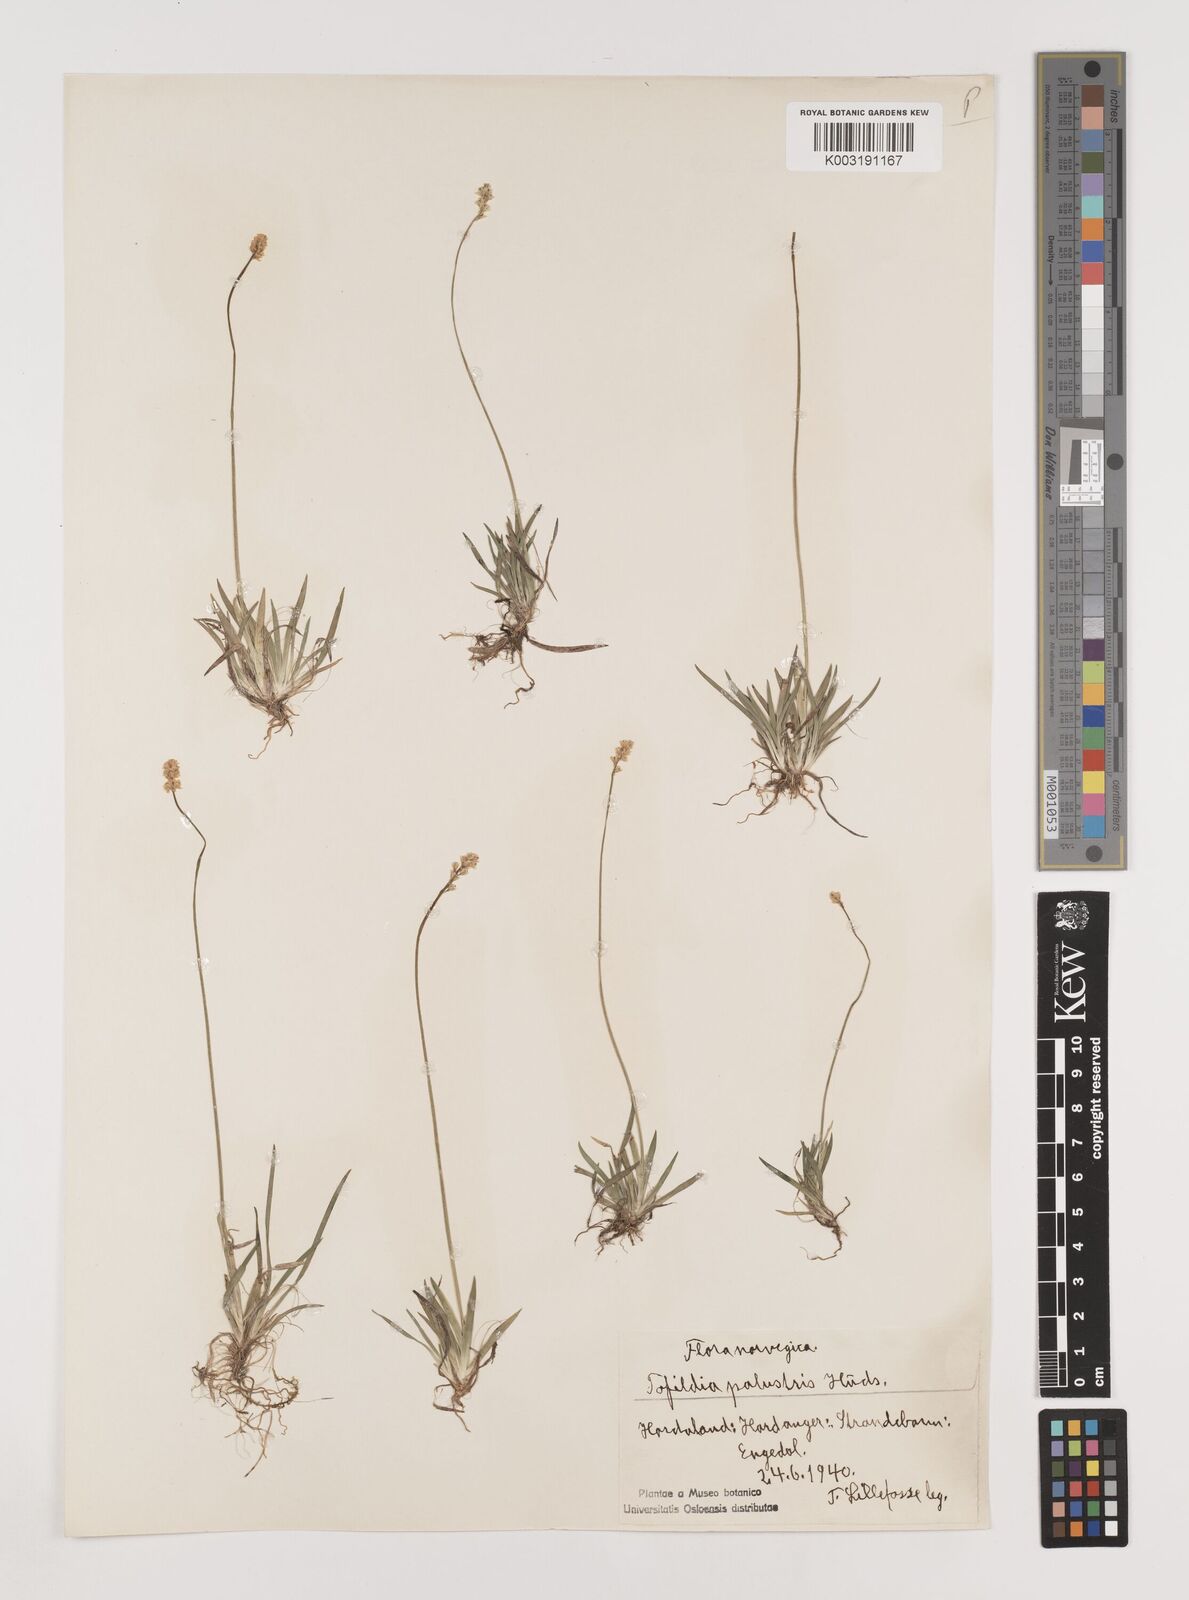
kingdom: Plantae
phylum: Tracheophyta
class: Liliopsida
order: Alismatales
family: Tofieldiaceae
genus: Tofieldia
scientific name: Tofieldia pusilla
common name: Scottish false asphodel
